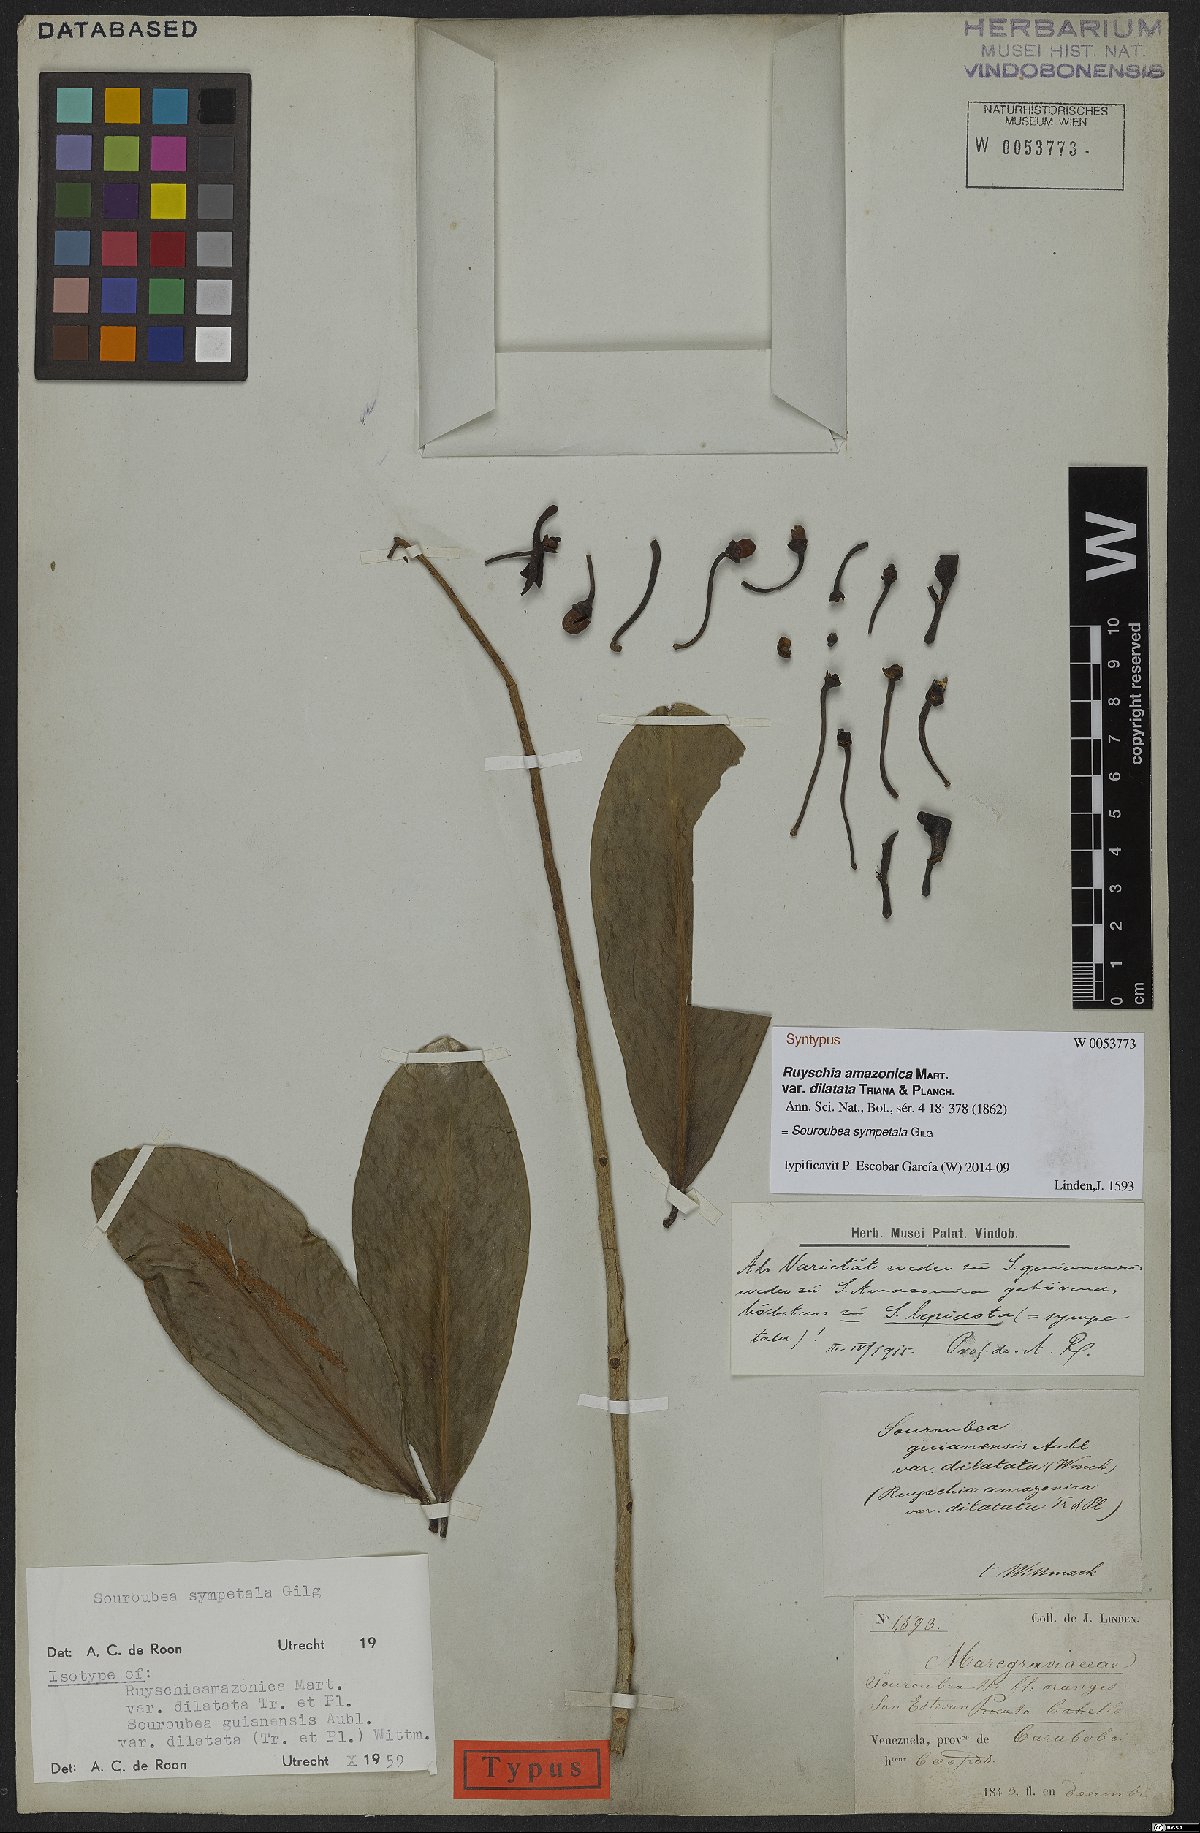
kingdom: Plantae
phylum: Tracheophyta
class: Magnoliopsida
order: Ericales
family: Marcgraviaceae
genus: Souroubea
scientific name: Souroubea sympetala
